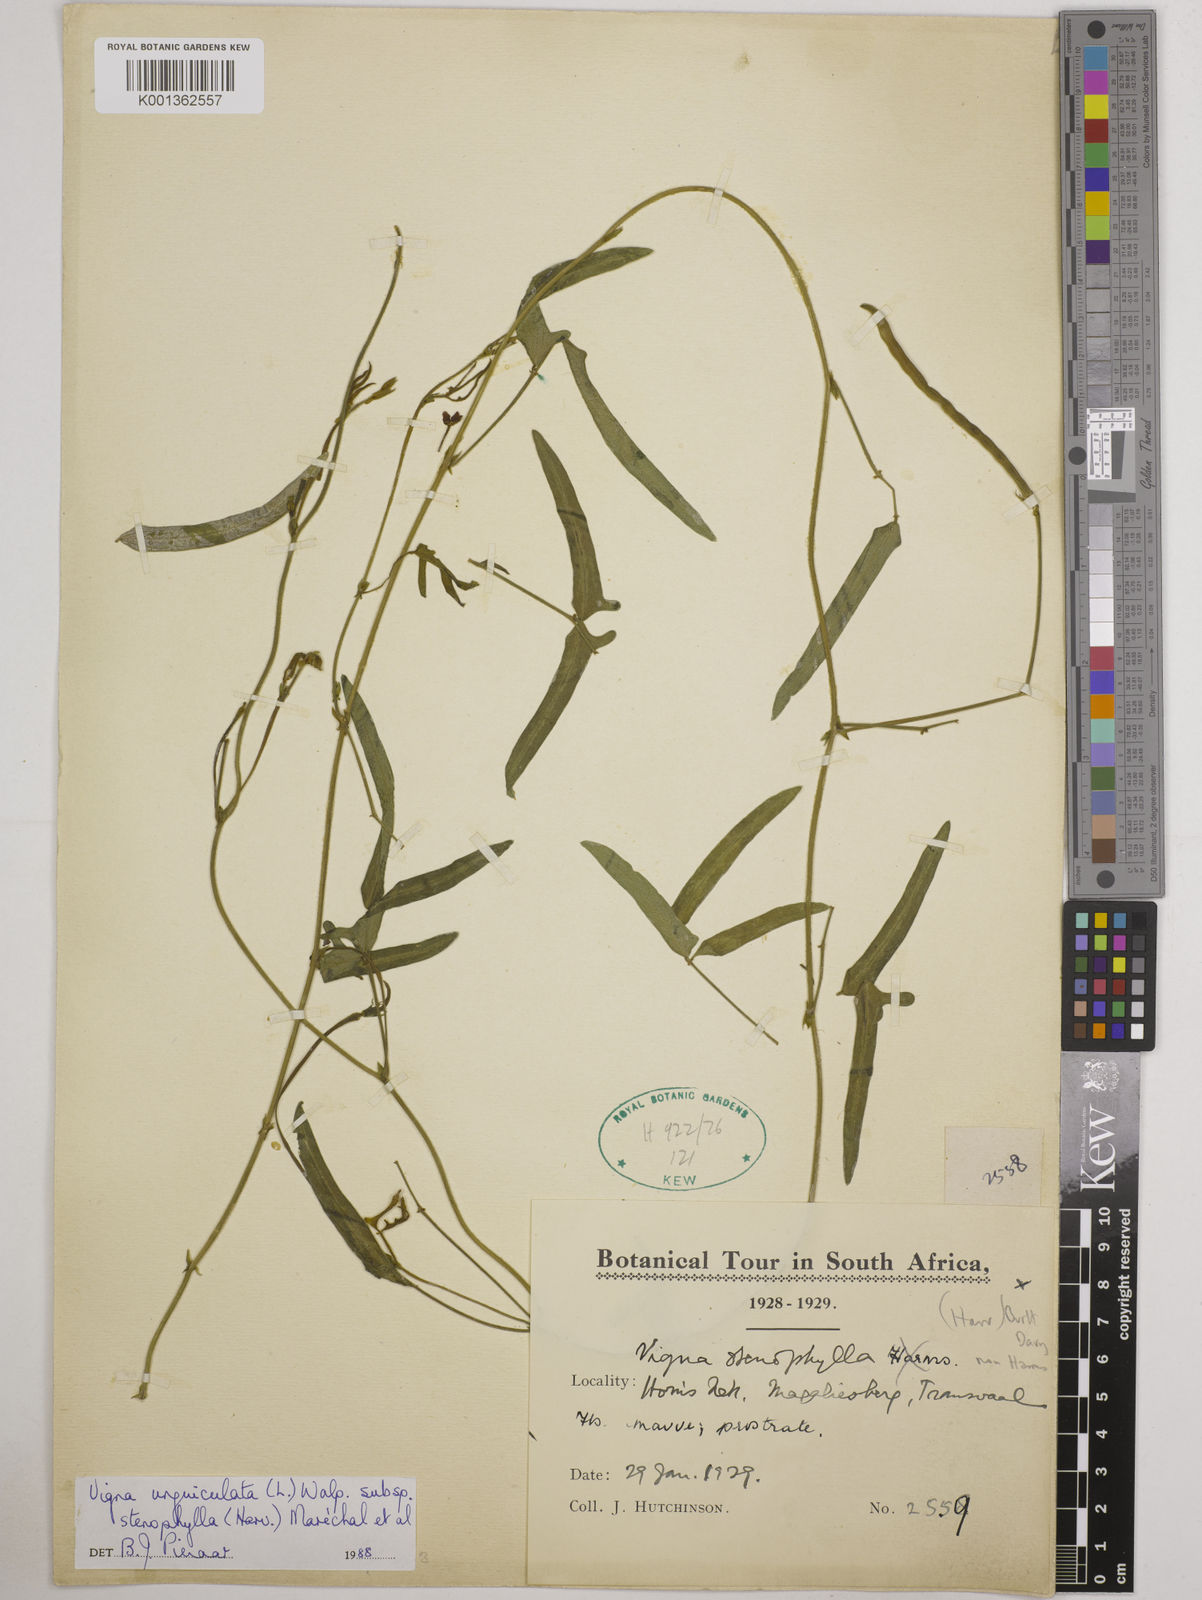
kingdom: Plantae
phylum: Tracheophyta
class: Magnoliopsida
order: Fabales
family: Fabaceae
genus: Vigna
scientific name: Vigna
